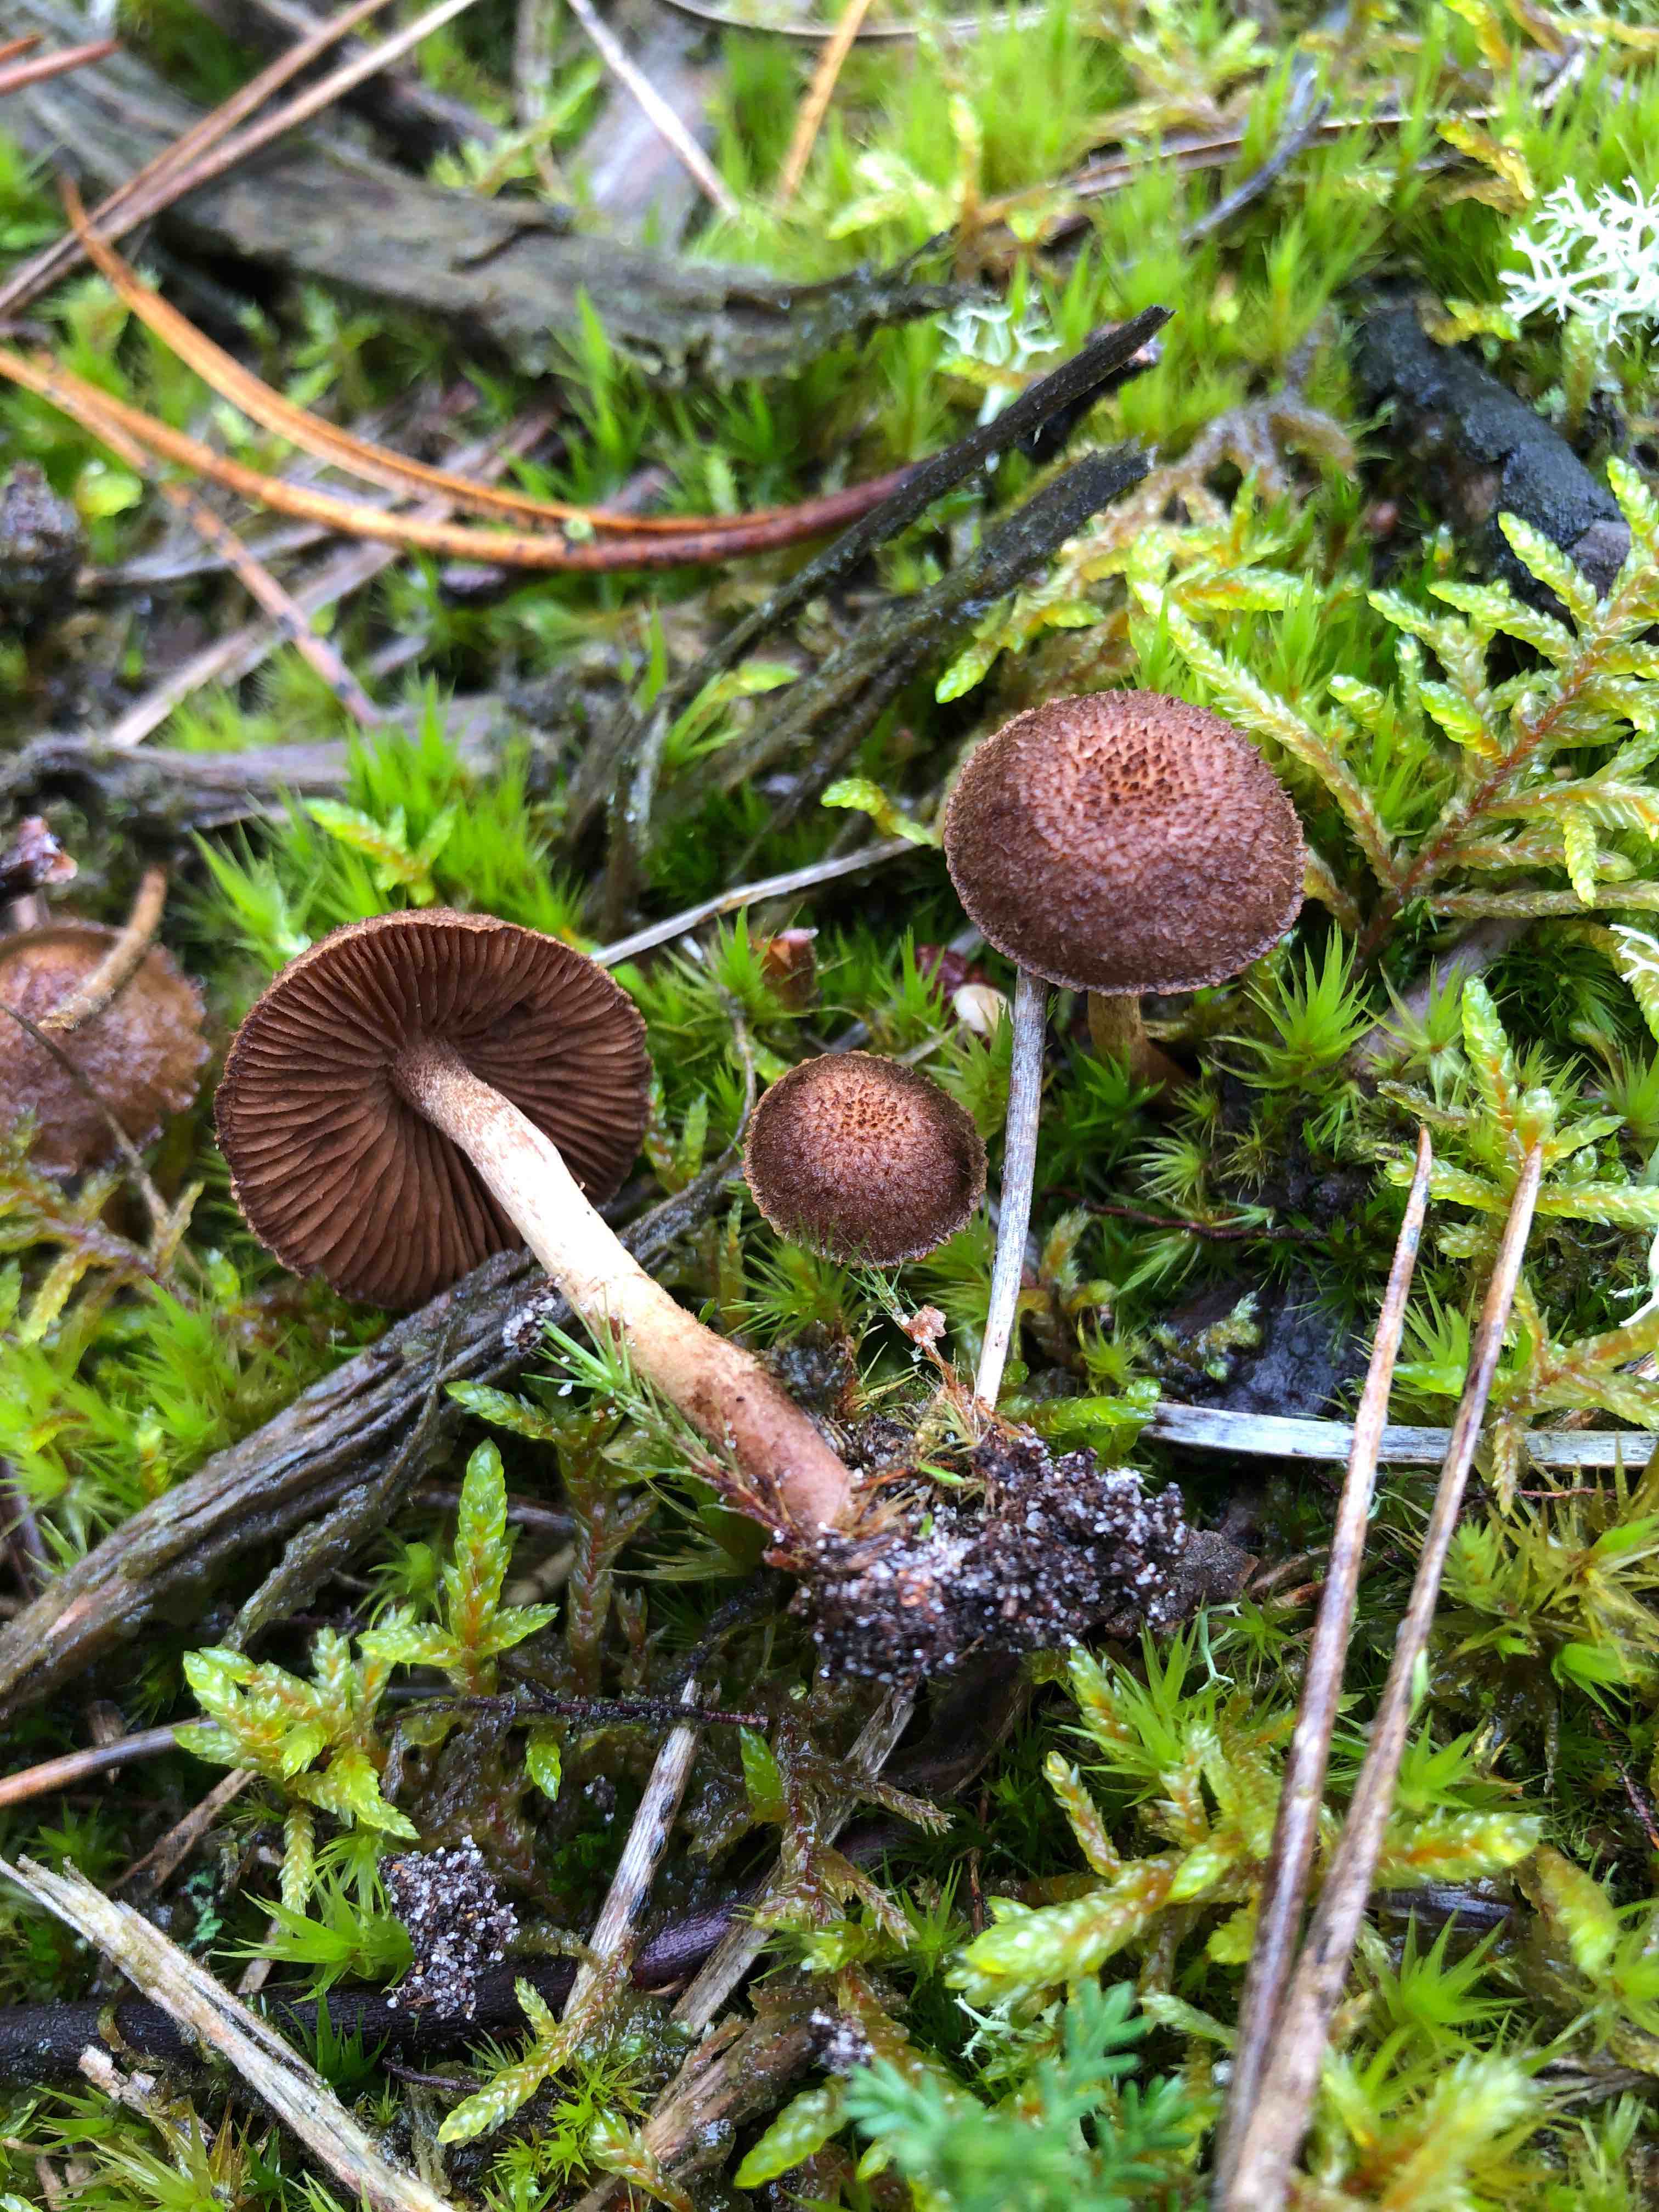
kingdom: Fungi
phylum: Basidiomycota
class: Agaricomycetes
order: Agaricales
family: Inocybaceae
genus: Inocybe
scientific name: Inocybe
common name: trævlhat
